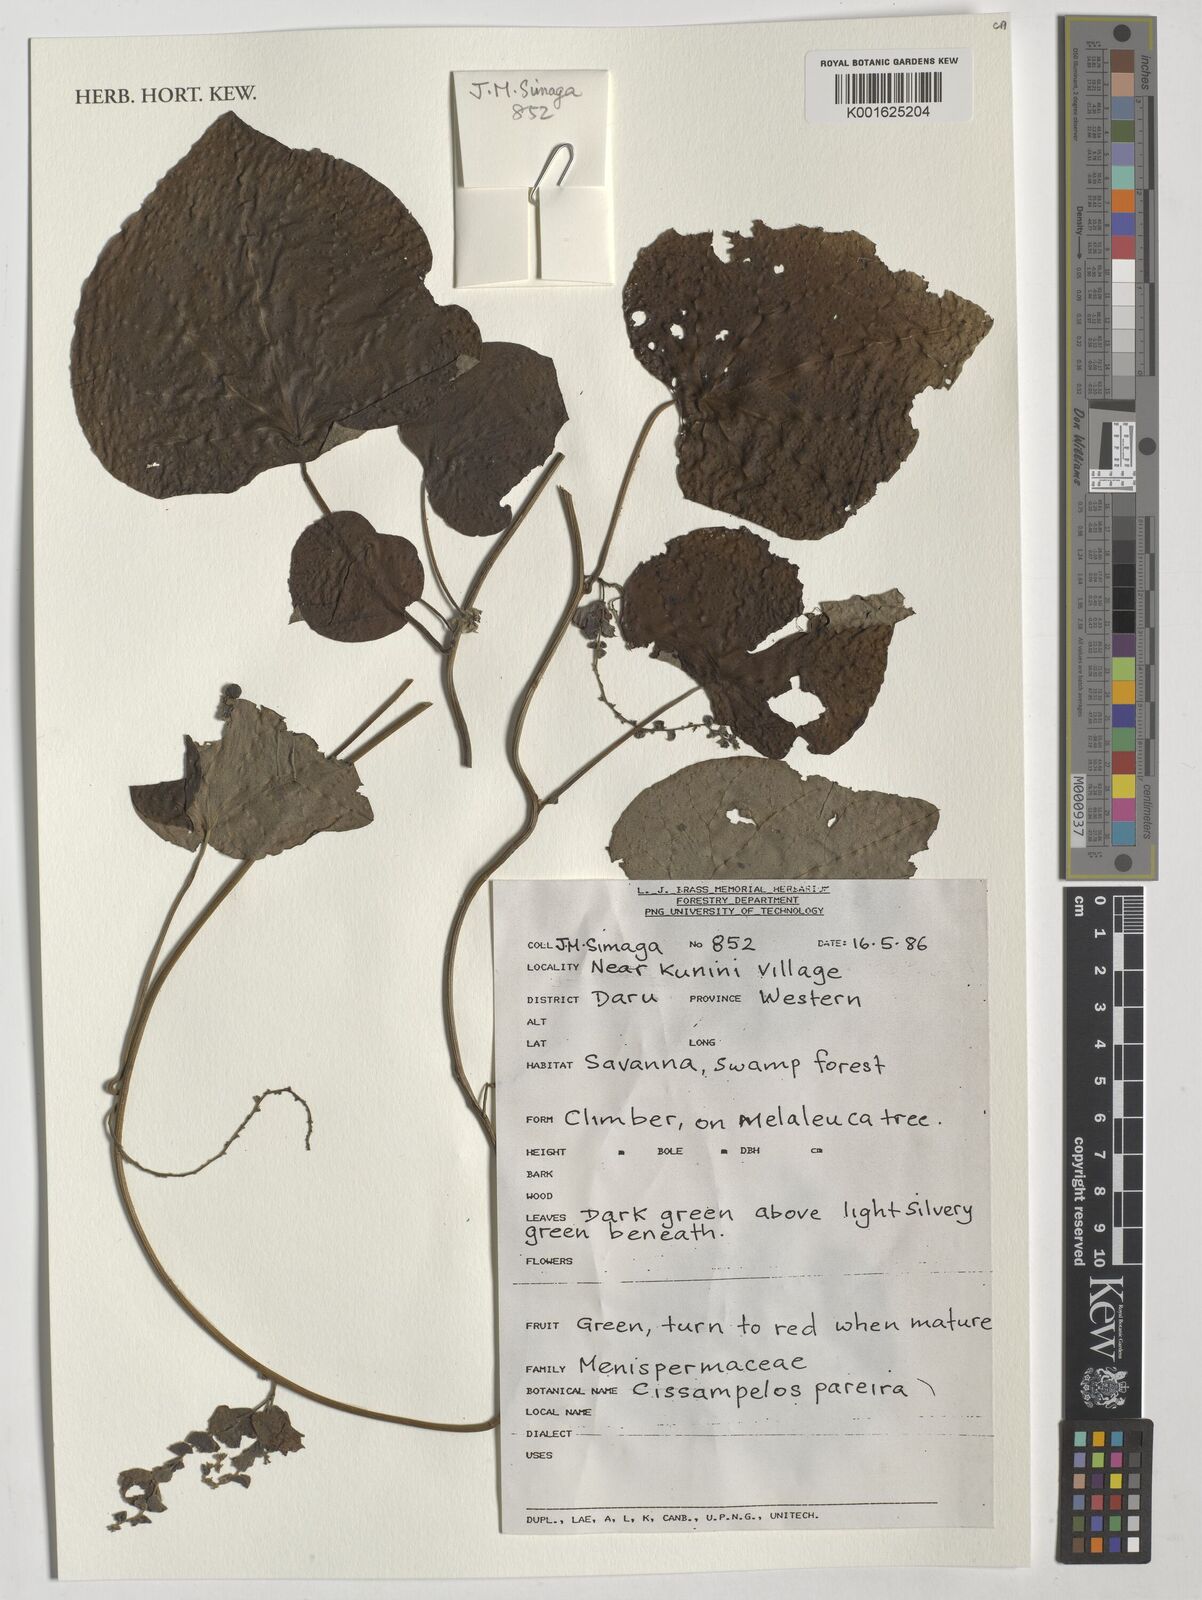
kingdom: Plantae
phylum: Tracheophyta
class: Magnoliopsida
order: Ranunculales
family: Menispermaceae
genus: Cissampelos
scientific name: Cissampelos pareira
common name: Velvetleaf
